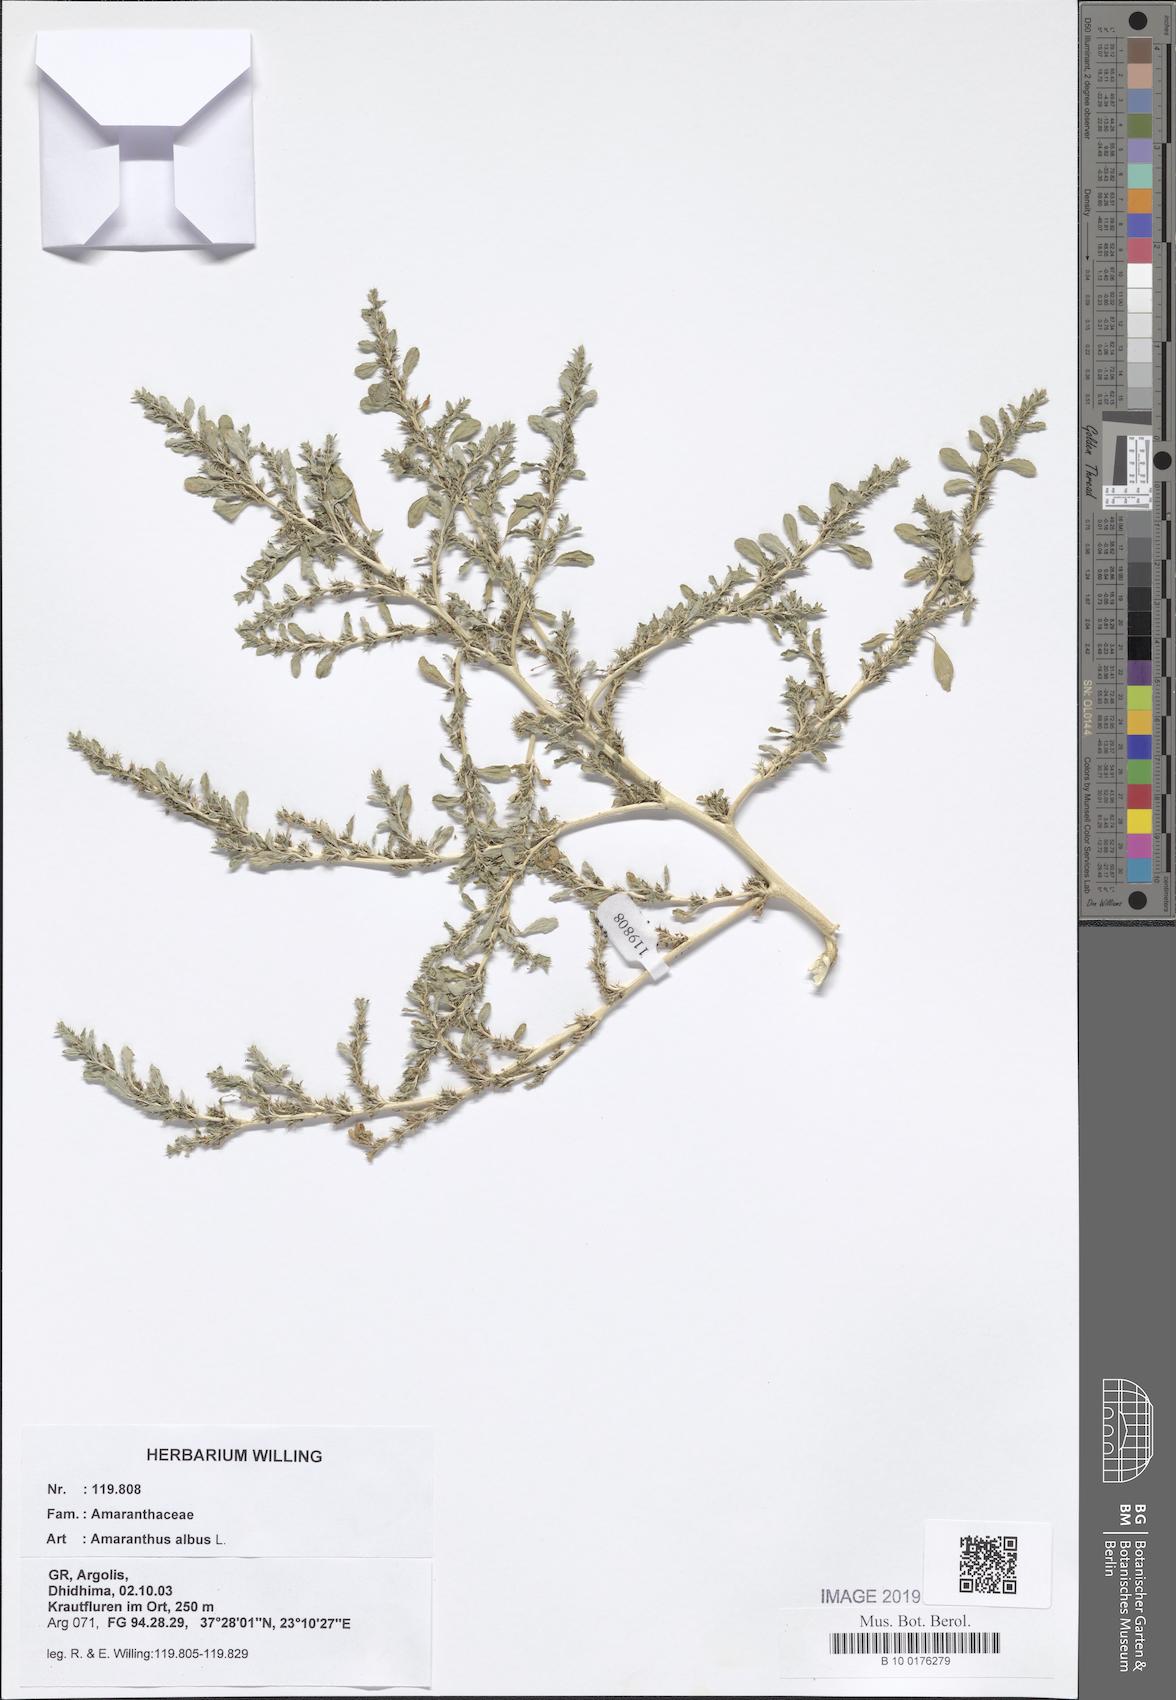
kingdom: Plantae
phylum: Tracheophyta
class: Magnoliopsida
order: Caryophyllales
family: Amaranthaceae
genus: Amaranthus
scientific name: Amaranthus albus
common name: White pigweed
